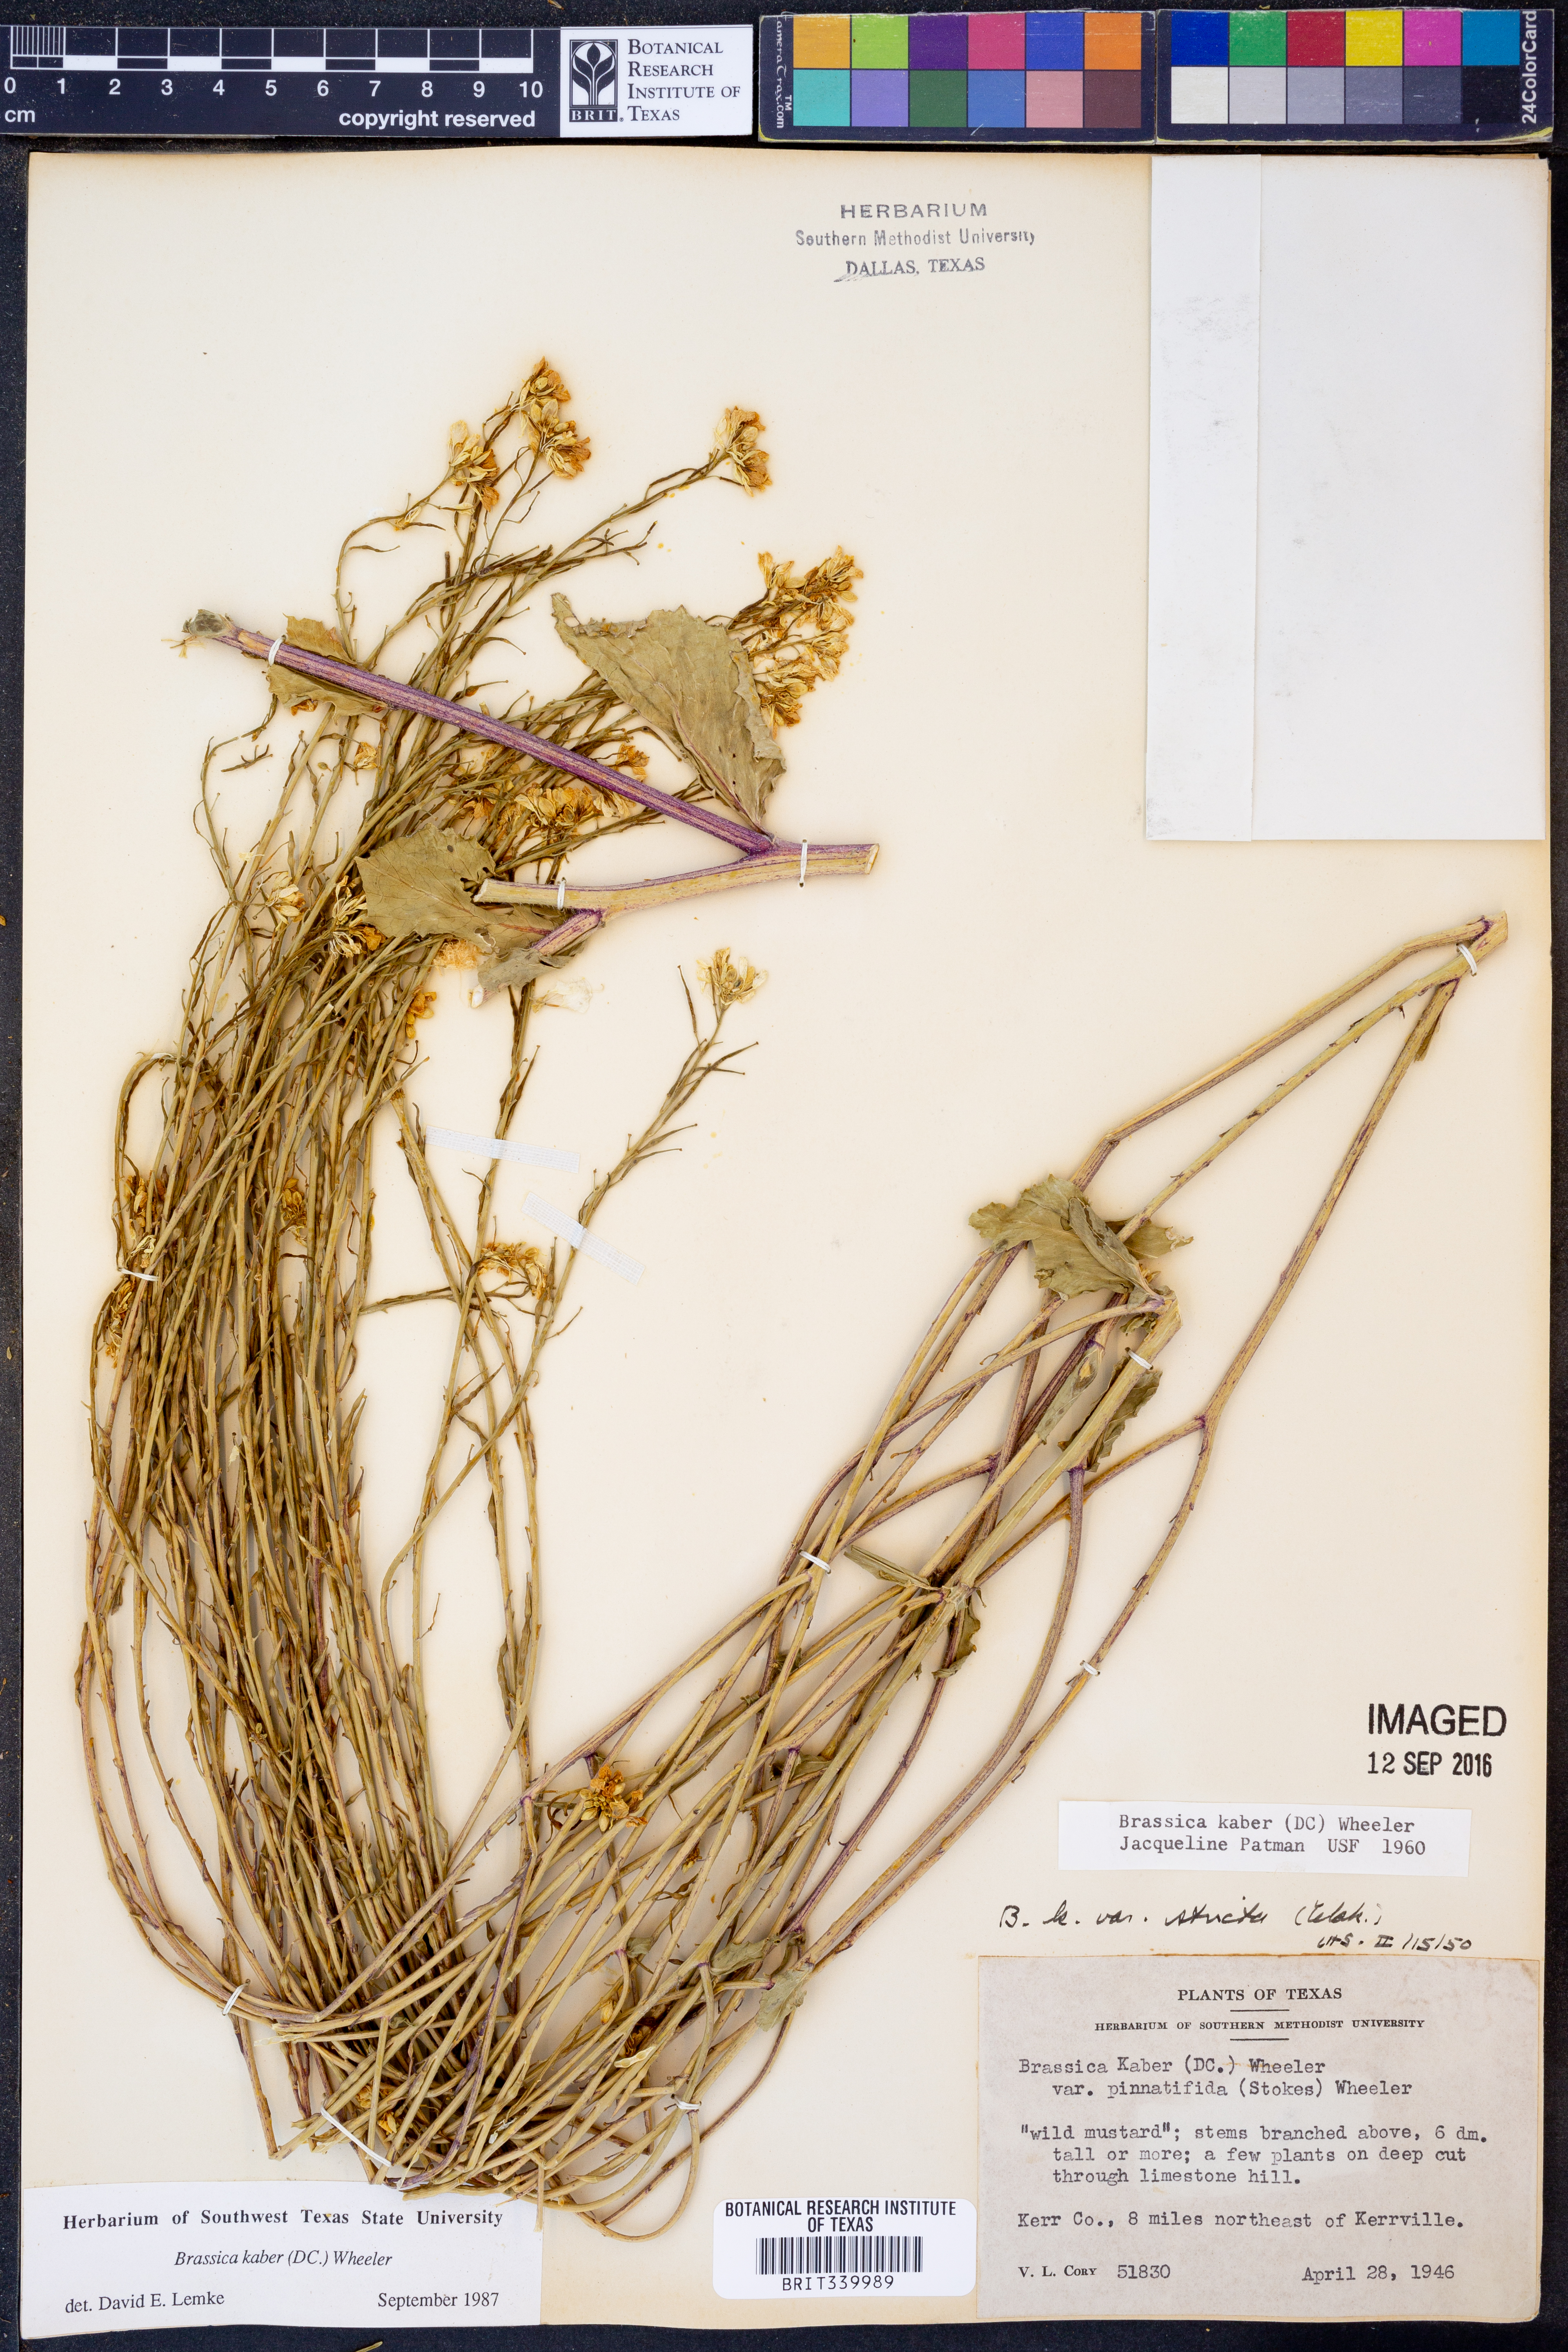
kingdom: Plantae
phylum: Tracheophyta
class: Magnoliopsida
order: Brassicales
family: Brassicaceae
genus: Sinapis
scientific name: Sinapis arvensis
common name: Charlock
